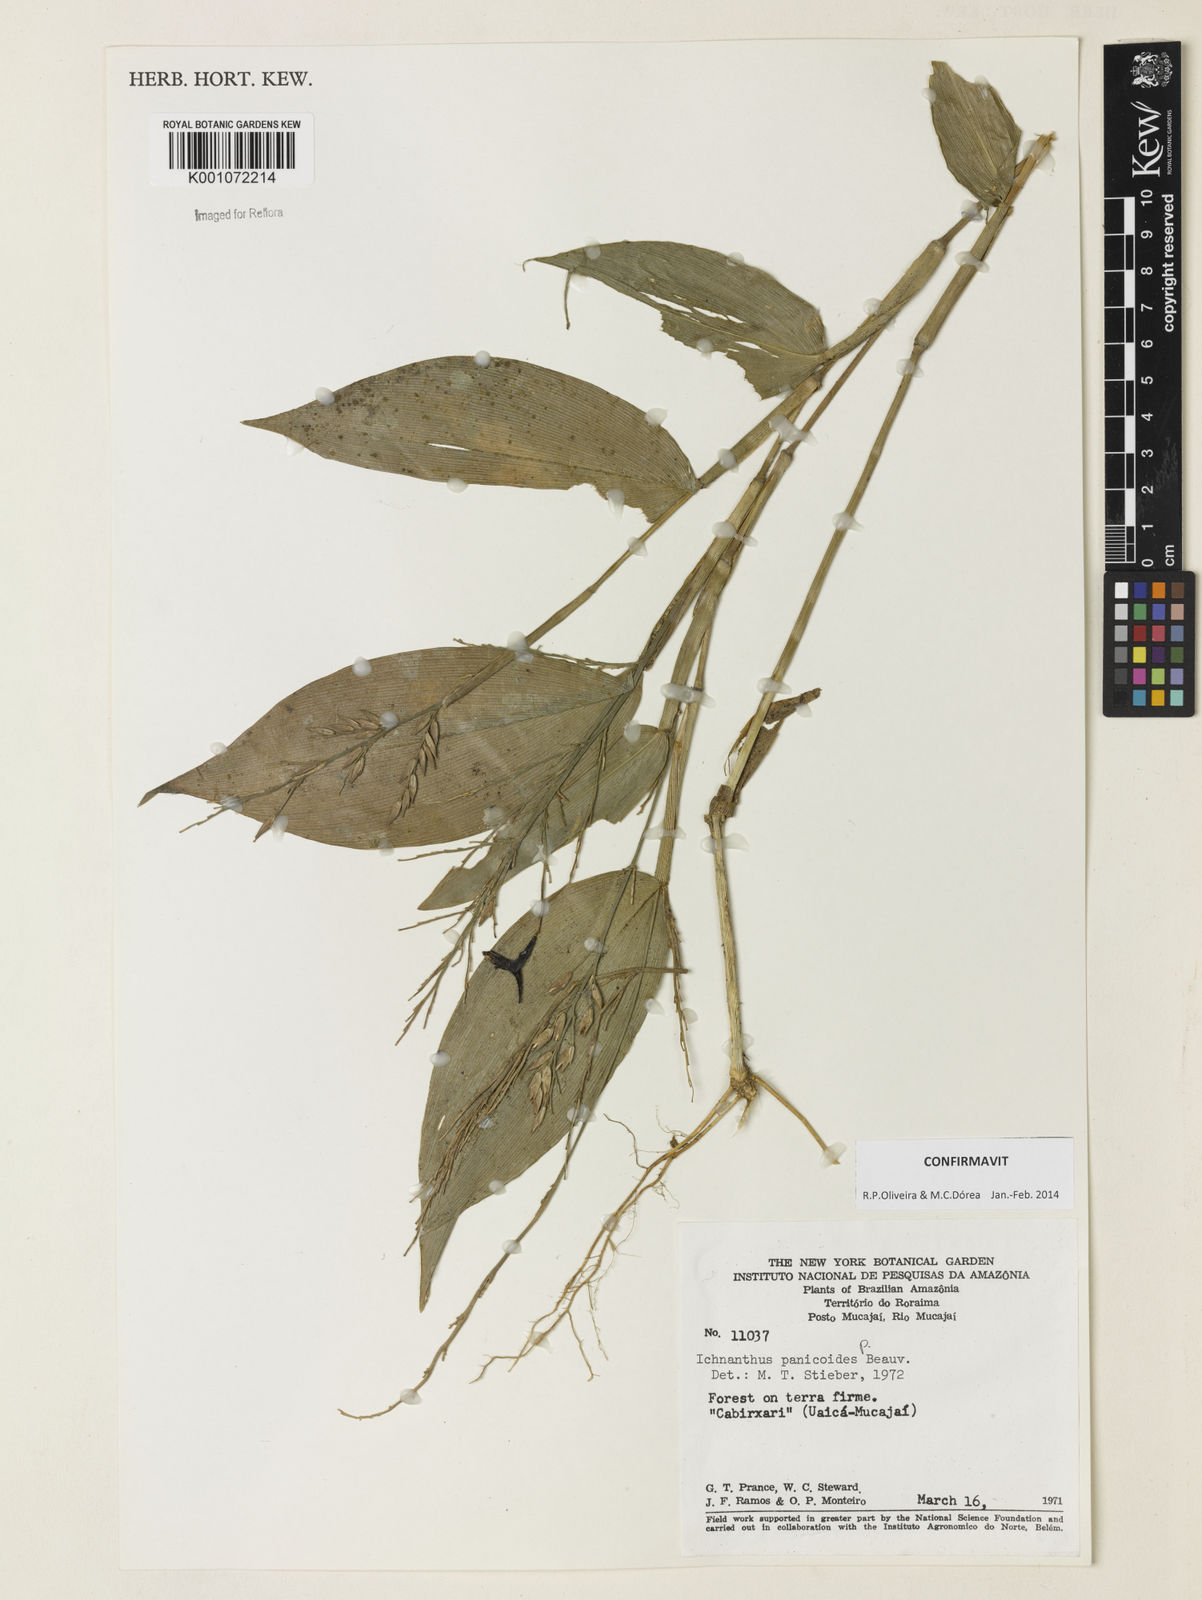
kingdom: Plantae
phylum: Tracheophyta
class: Liliopsida
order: Poales
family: Poaceae
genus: Ichnanthus
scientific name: Ichnanthus panicoides
